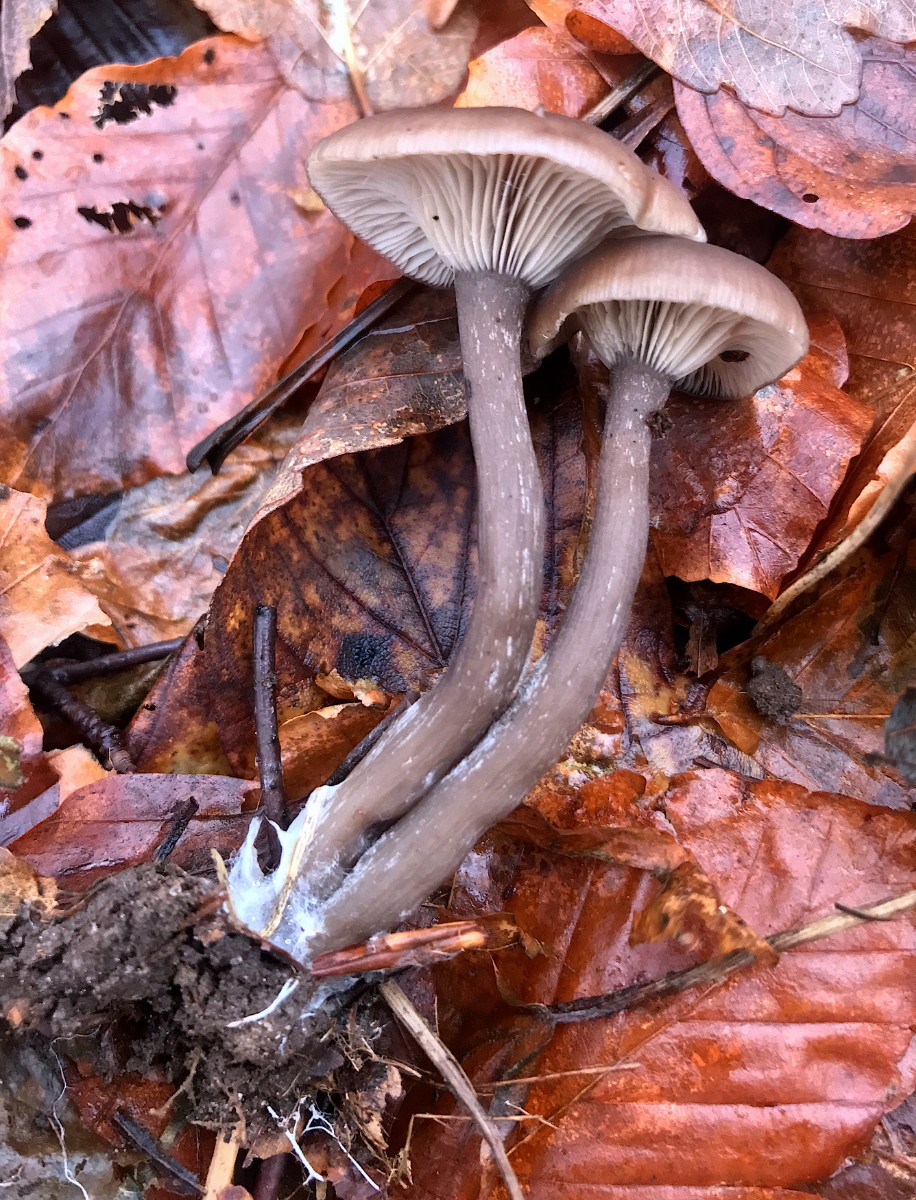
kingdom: Fungi
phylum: Basidiomycota
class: Agaricomycetes
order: Agaricales
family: Pseudoclitocybaceae
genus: Pseudoclitocybe
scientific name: Pseudoclitocybe cyathiformis
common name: almindelig bægertragthat
